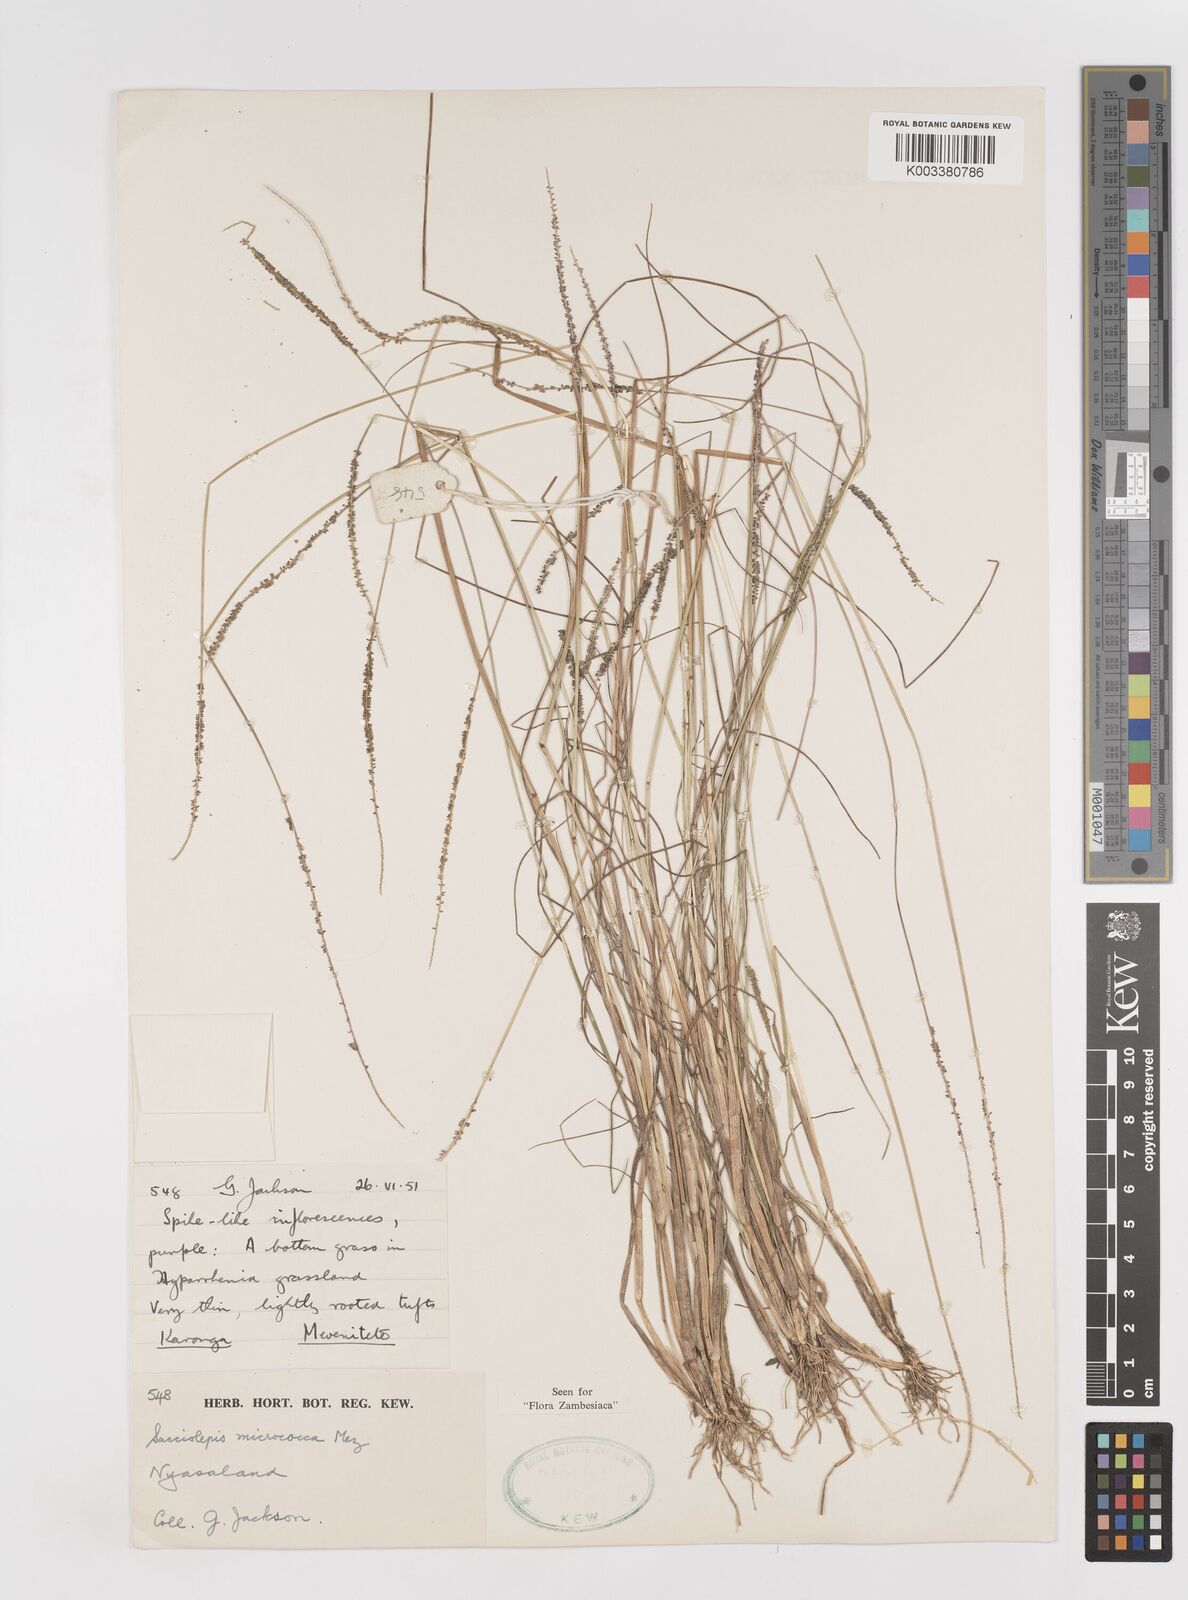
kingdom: Plantae
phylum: Tracheophyta
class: Liliopsida
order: Poales
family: Poaceae
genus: Sacciolepis
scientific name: Sacciolepis micrococca
